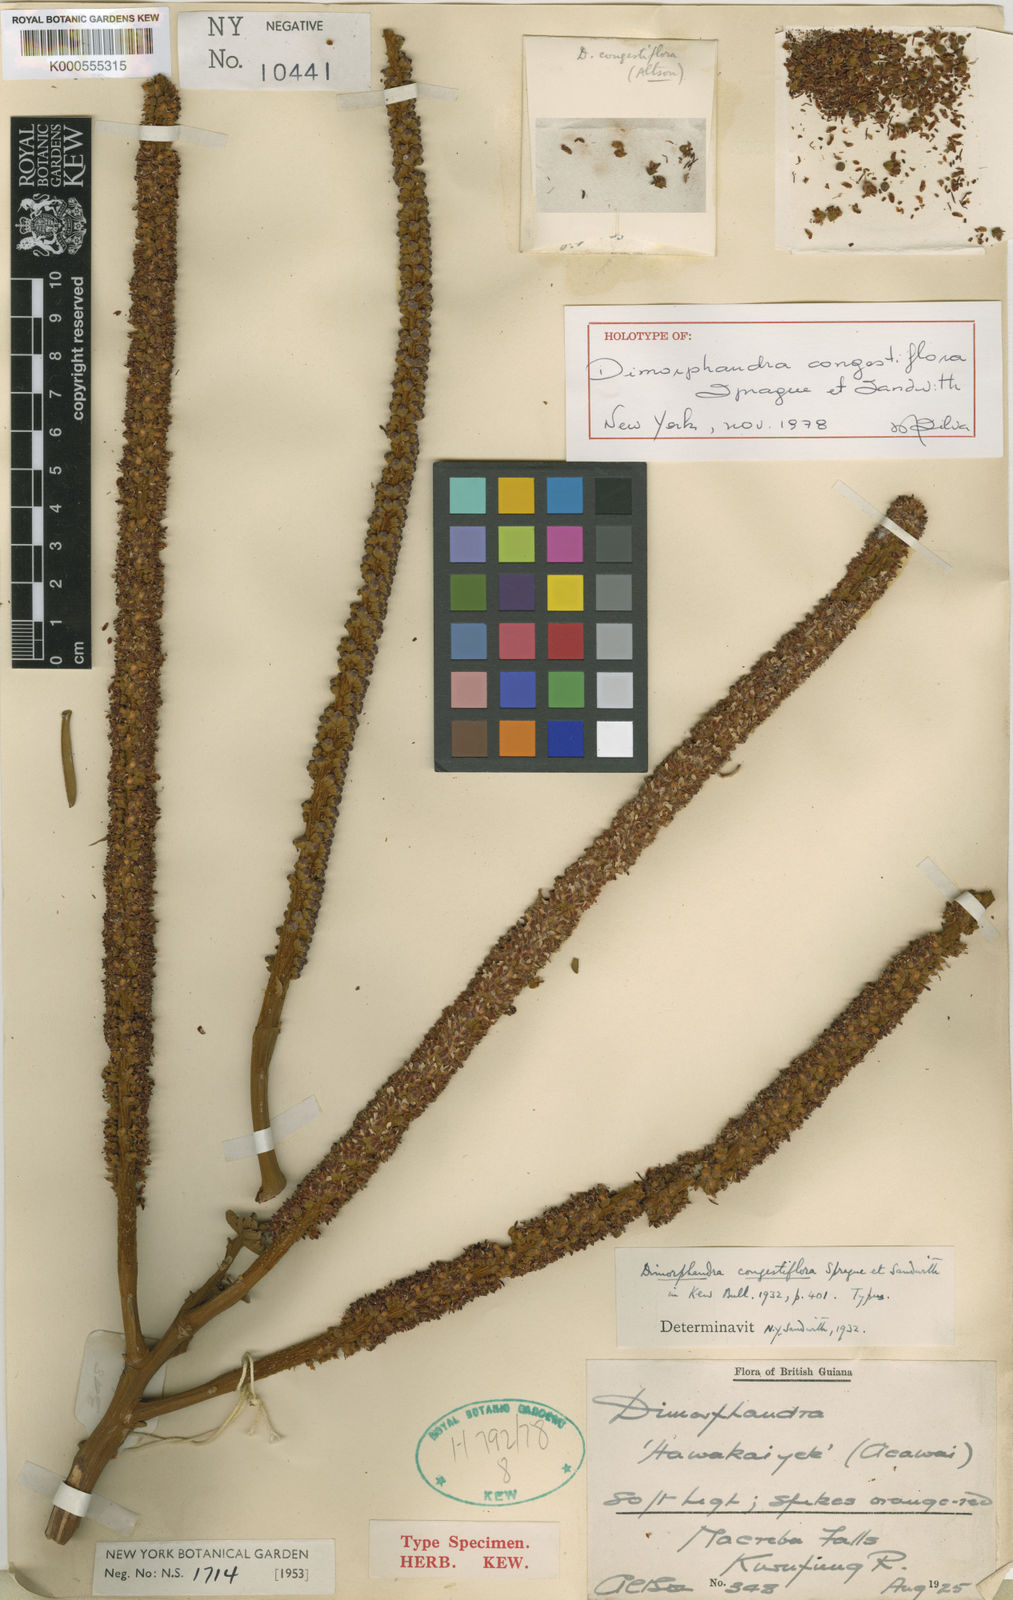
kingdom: Plantae
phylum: Tracheophyta
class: Magnoliopsida
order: Fabales
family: Fabaceae
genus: Dimorphandra
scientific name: Dimorphandra macrostachya
